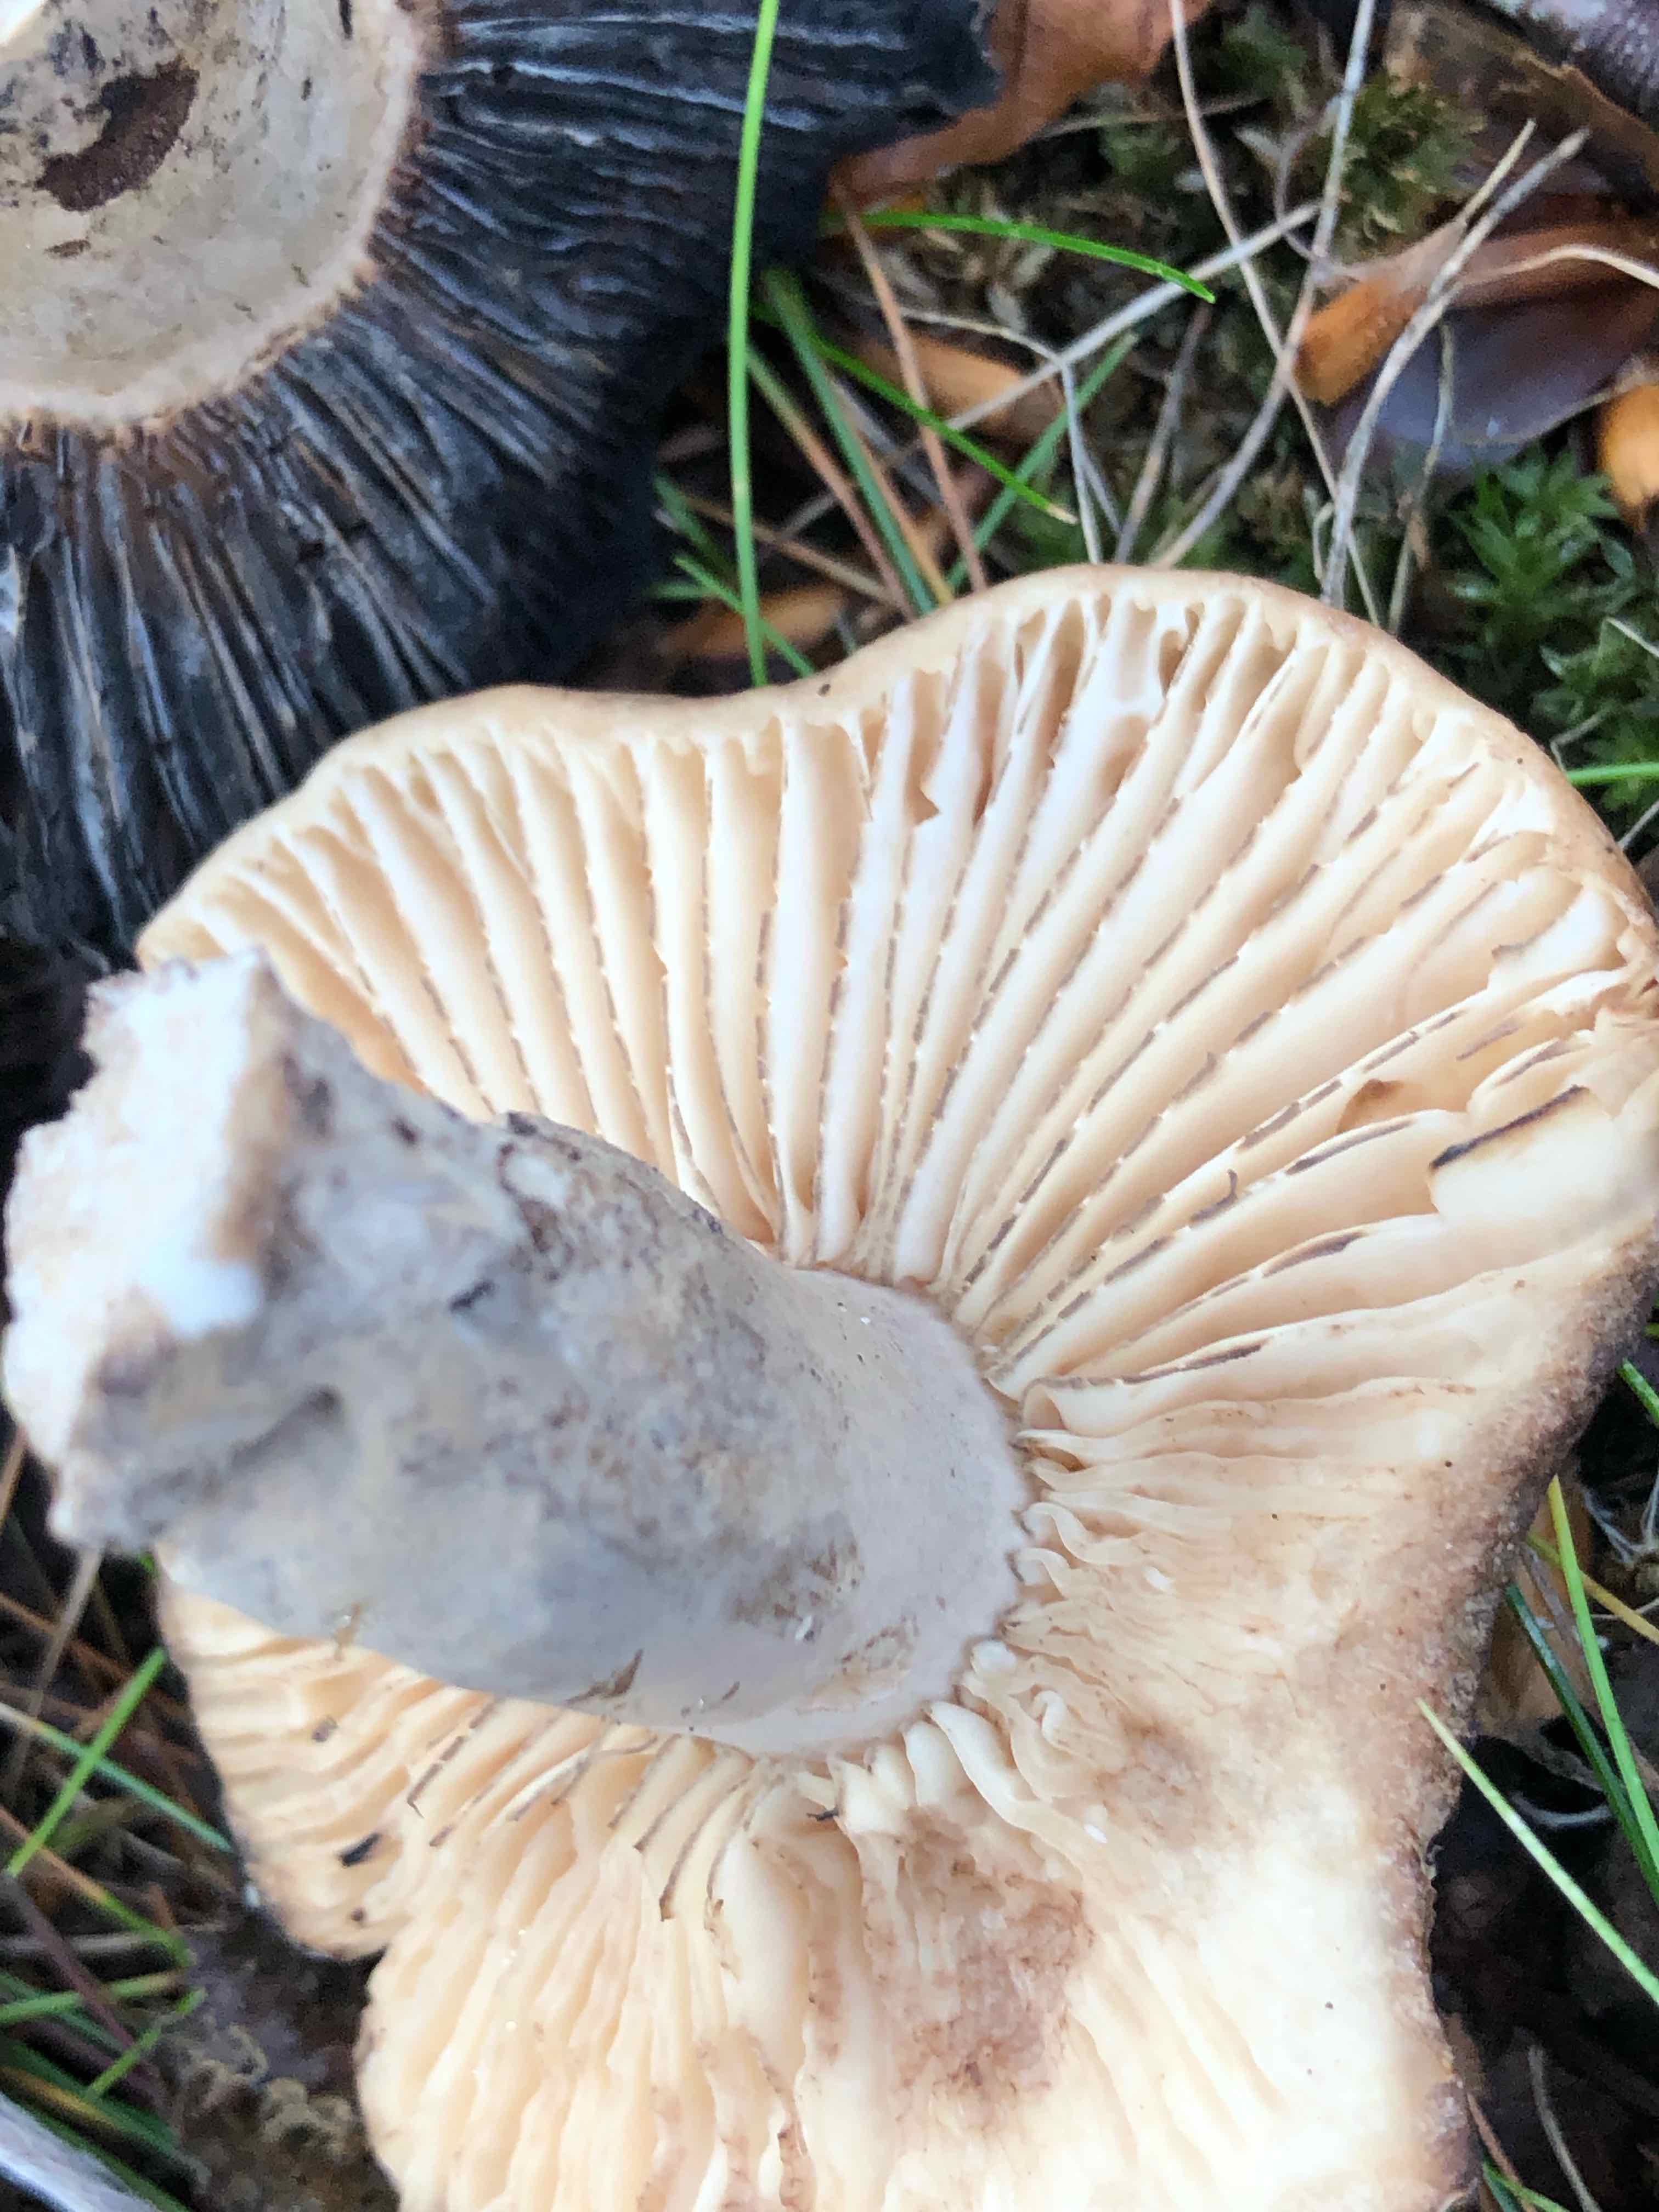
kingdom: Fungi
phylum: Basidiomycota
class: Agaricomycetes
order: Russulales
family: Russulaceae
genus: Russula
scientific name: Russula adusta
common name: sværtende skørhat
